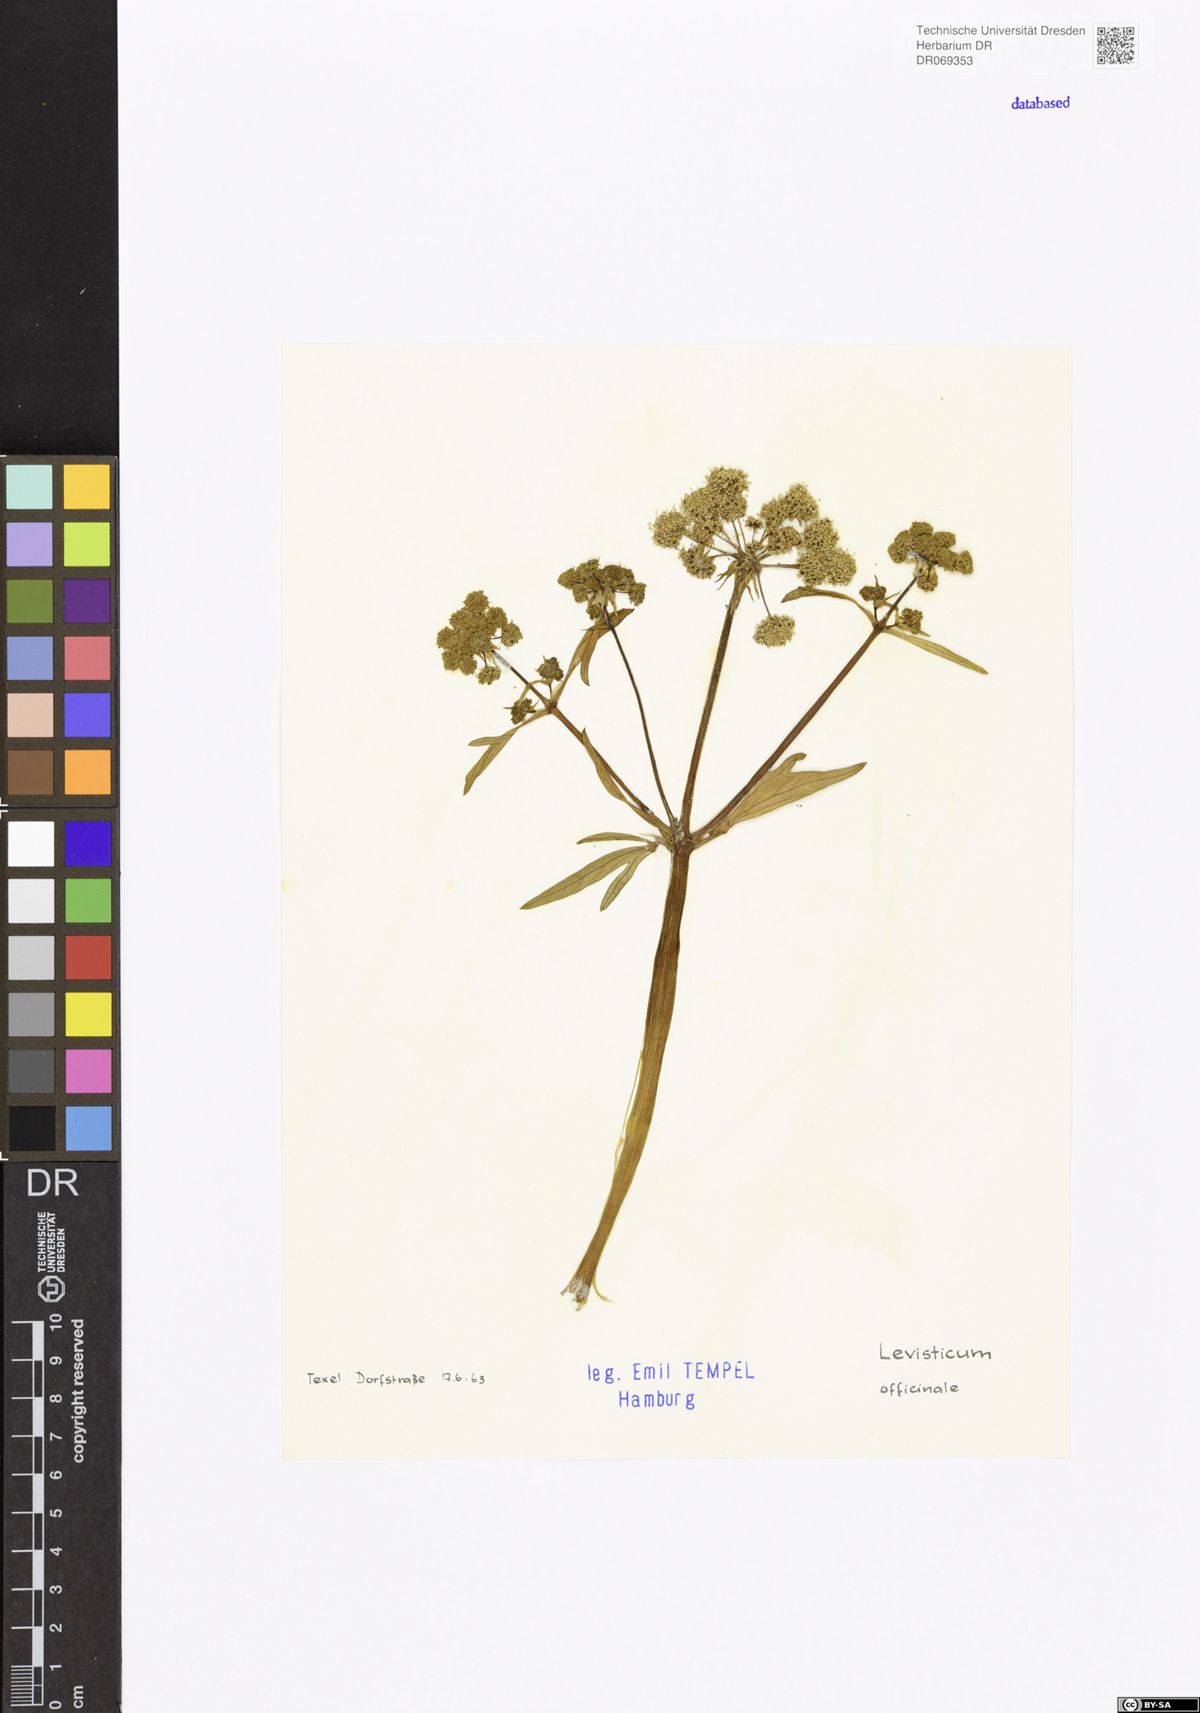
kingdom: Plantae
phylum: Tracheophyta
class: Magnoliopsida
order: Apiales
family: Apiaceae
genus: Levisticum
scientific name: Levisticum officinale
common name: Lovage
